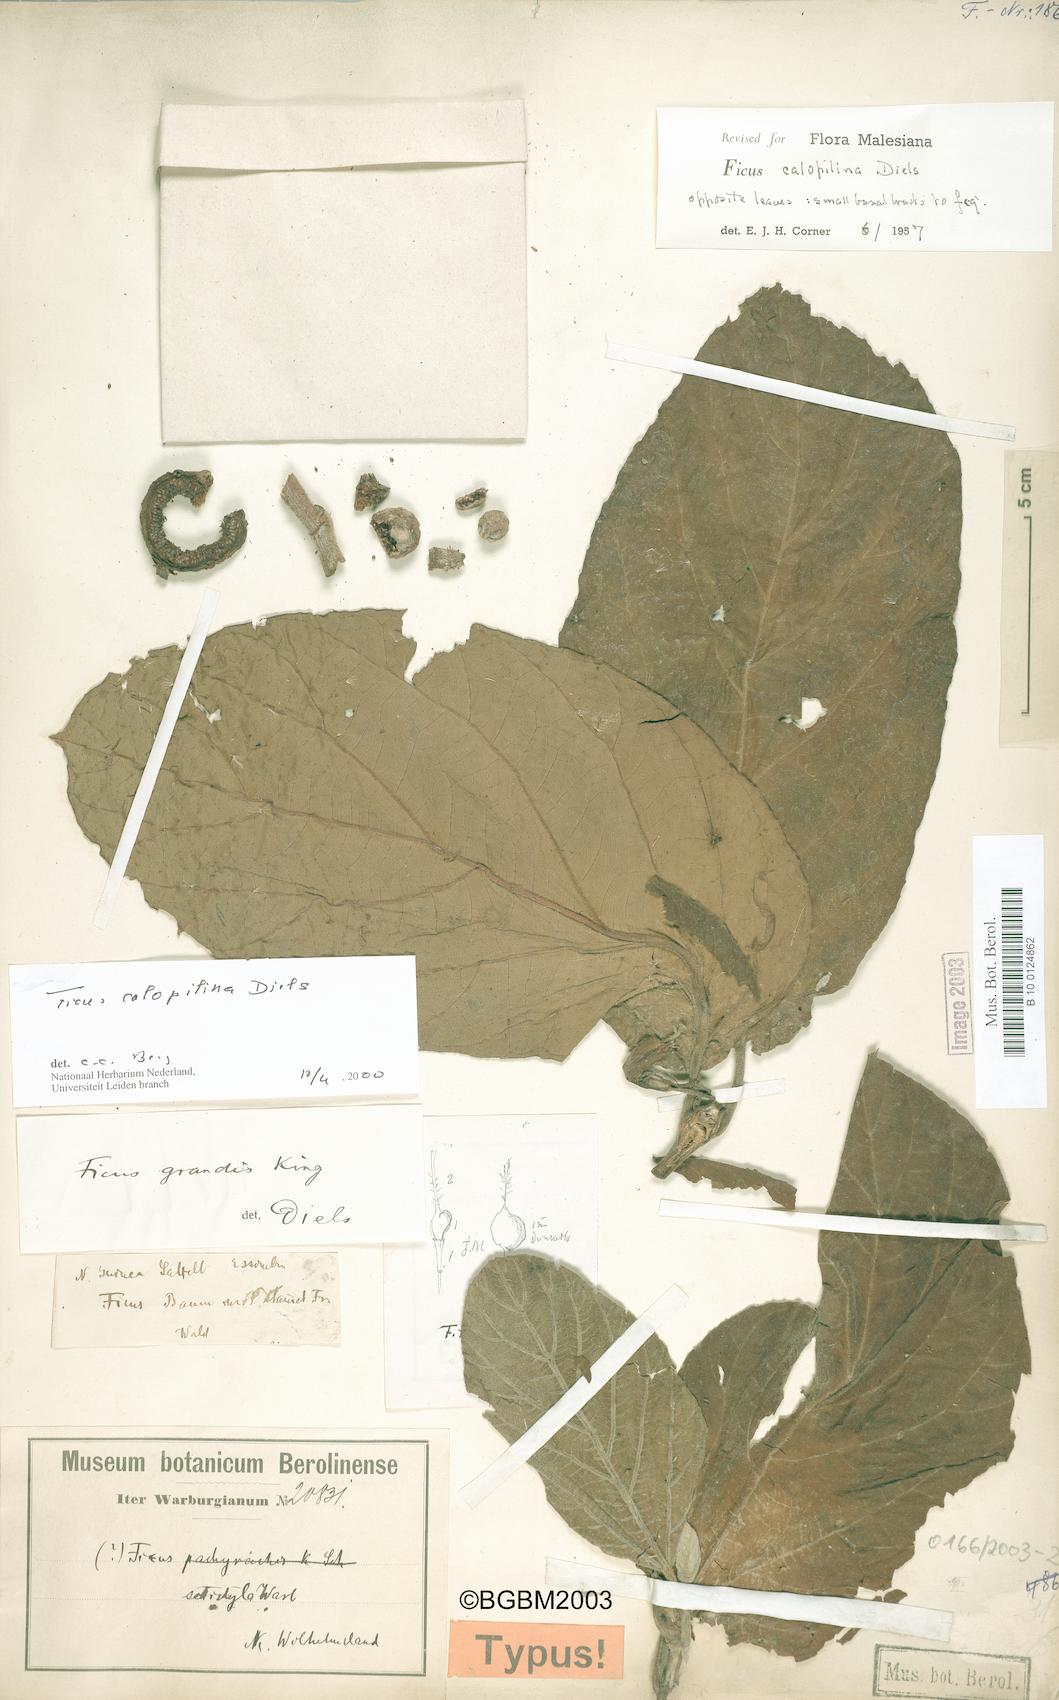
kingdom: Plantae
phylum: Tracheophyta
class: Magnoliopsida
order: Rosales
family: Moraceae
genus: Ficus
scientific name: Ficus calopilina
